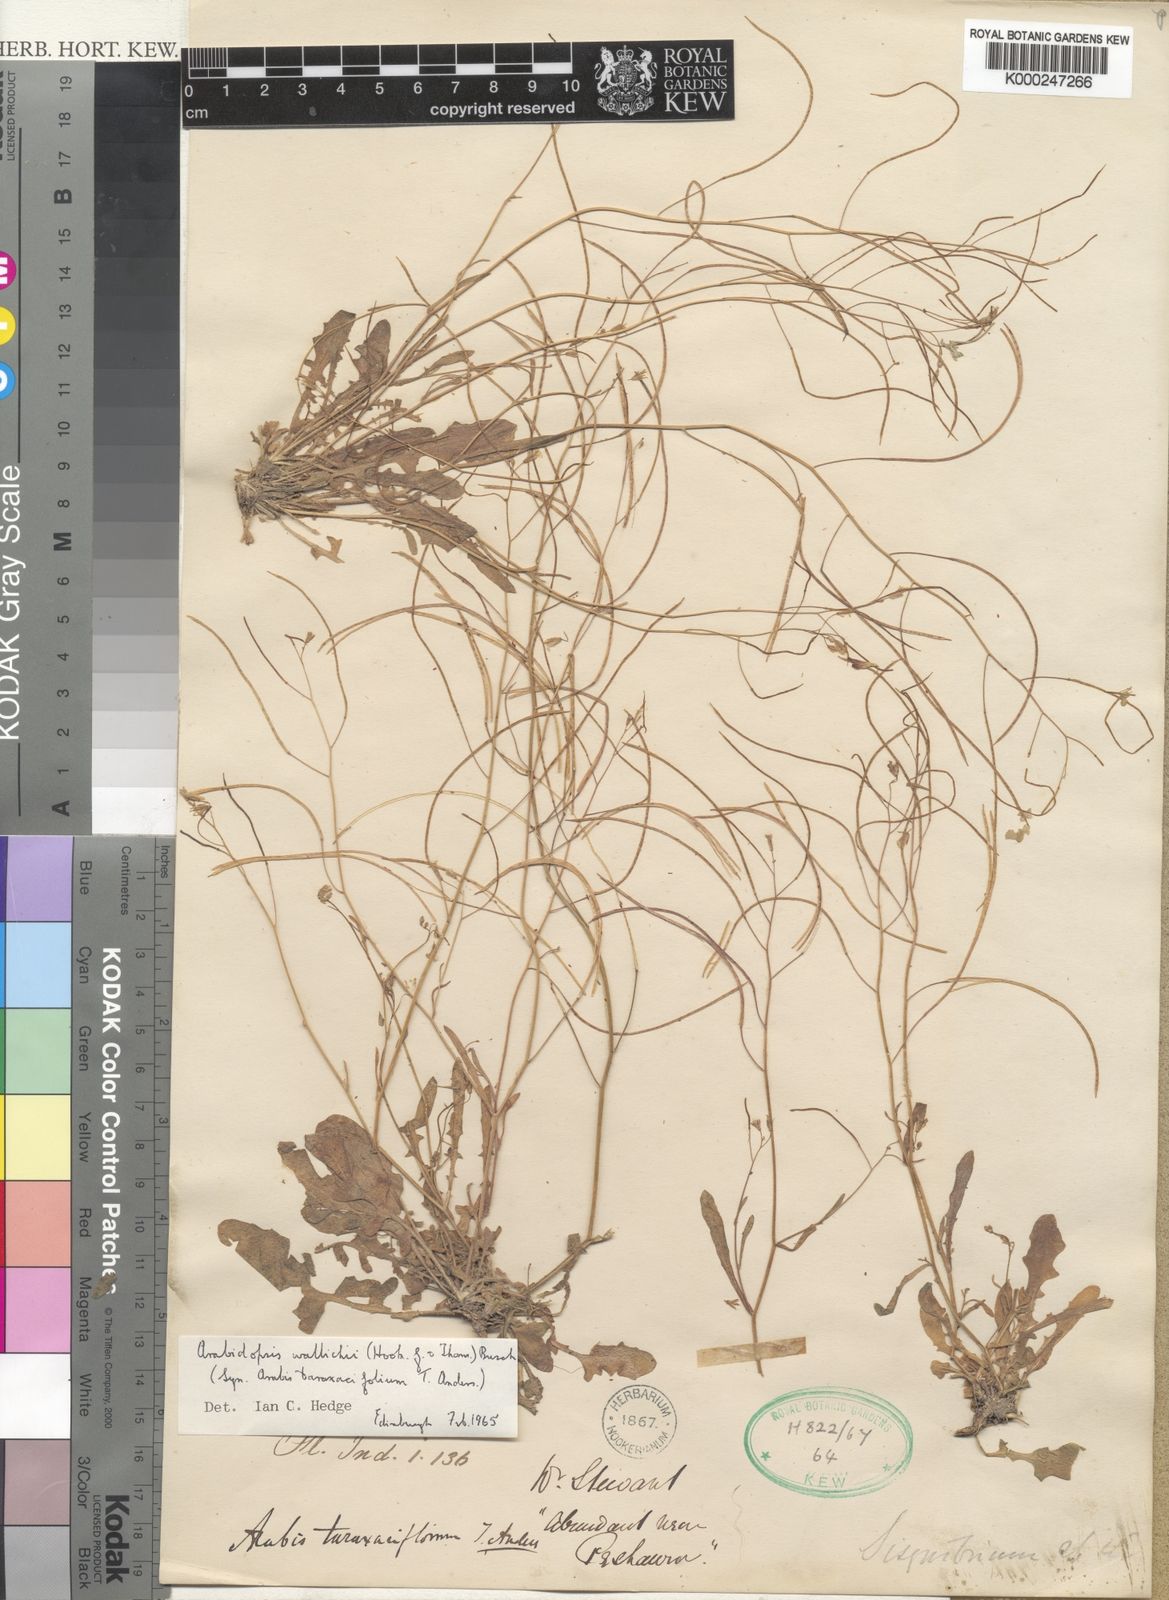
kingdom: Plantae
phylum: Tracheophyta
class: Magnoliopsida
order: Brassicales
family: Brassicaceae
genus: Crucihimalaya
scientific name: Crucihimalaya wallichii
